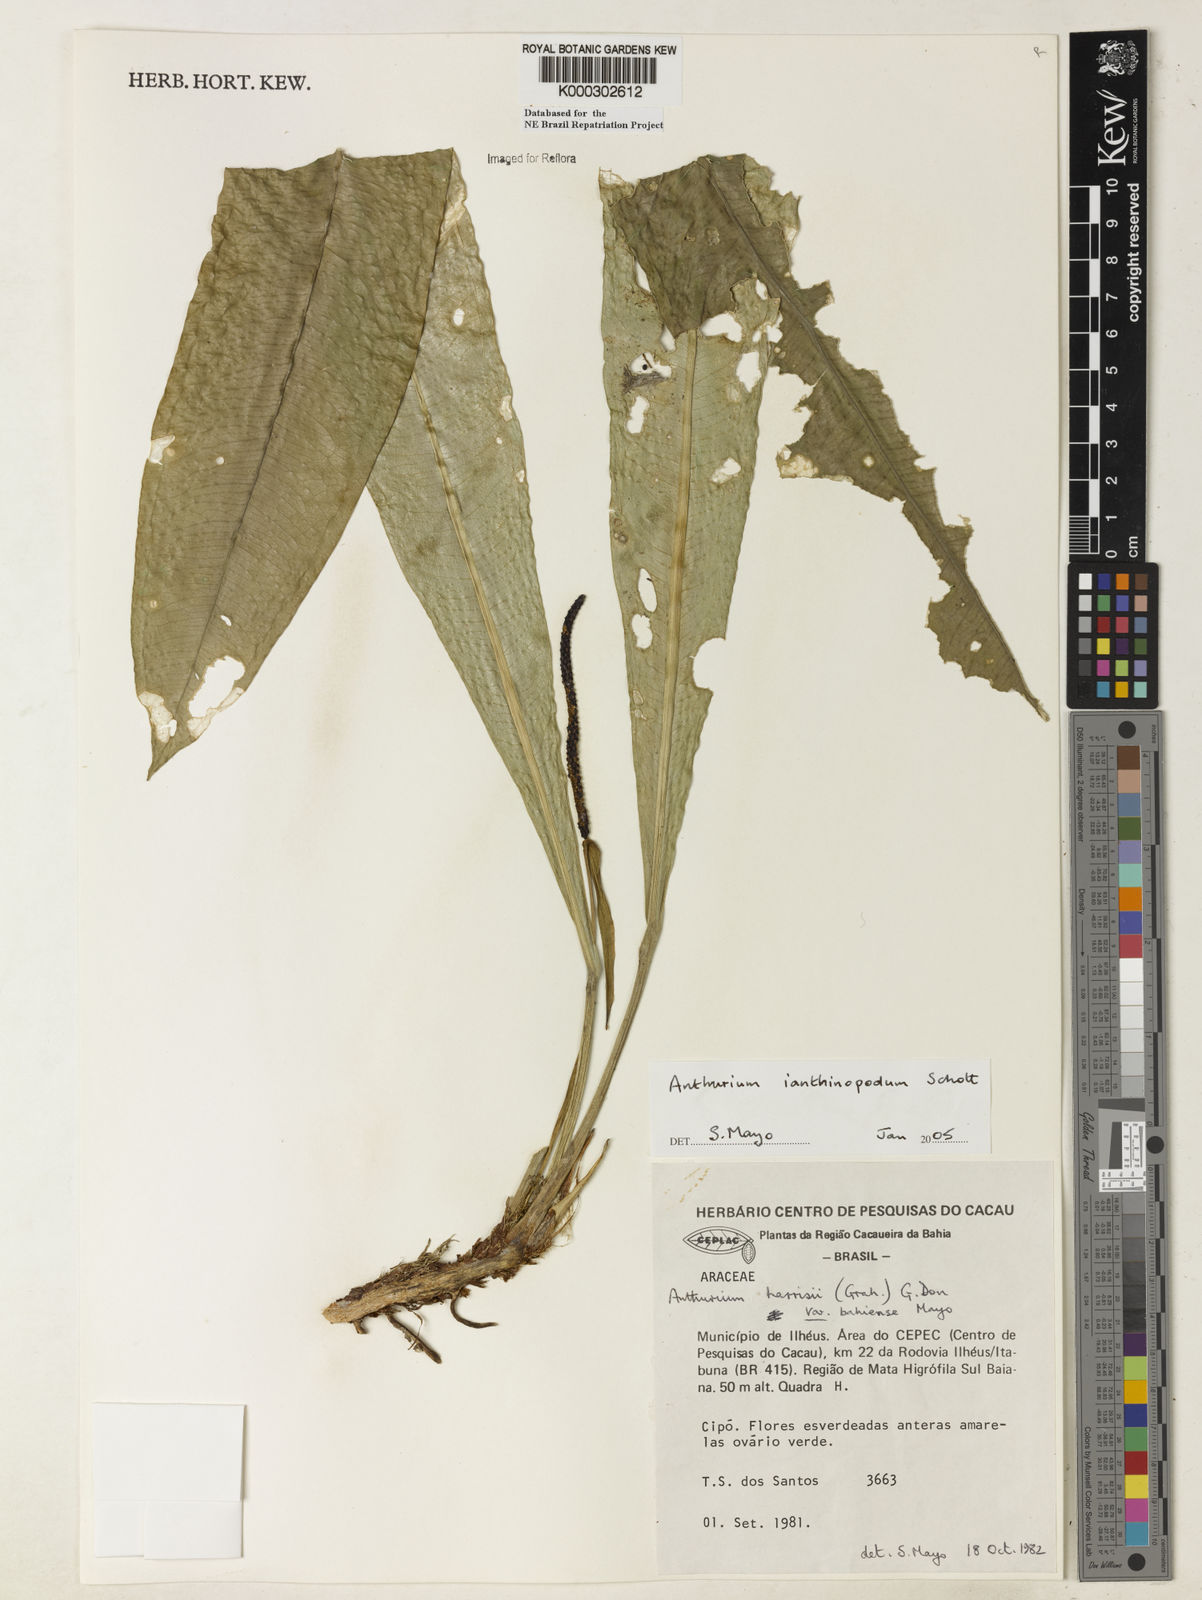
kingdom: Plantae
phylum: Tracheophyta
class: Liliopsida
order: Alismatales
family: Araceae
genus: Anthurium
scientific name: Anthurium ianthinopodum
